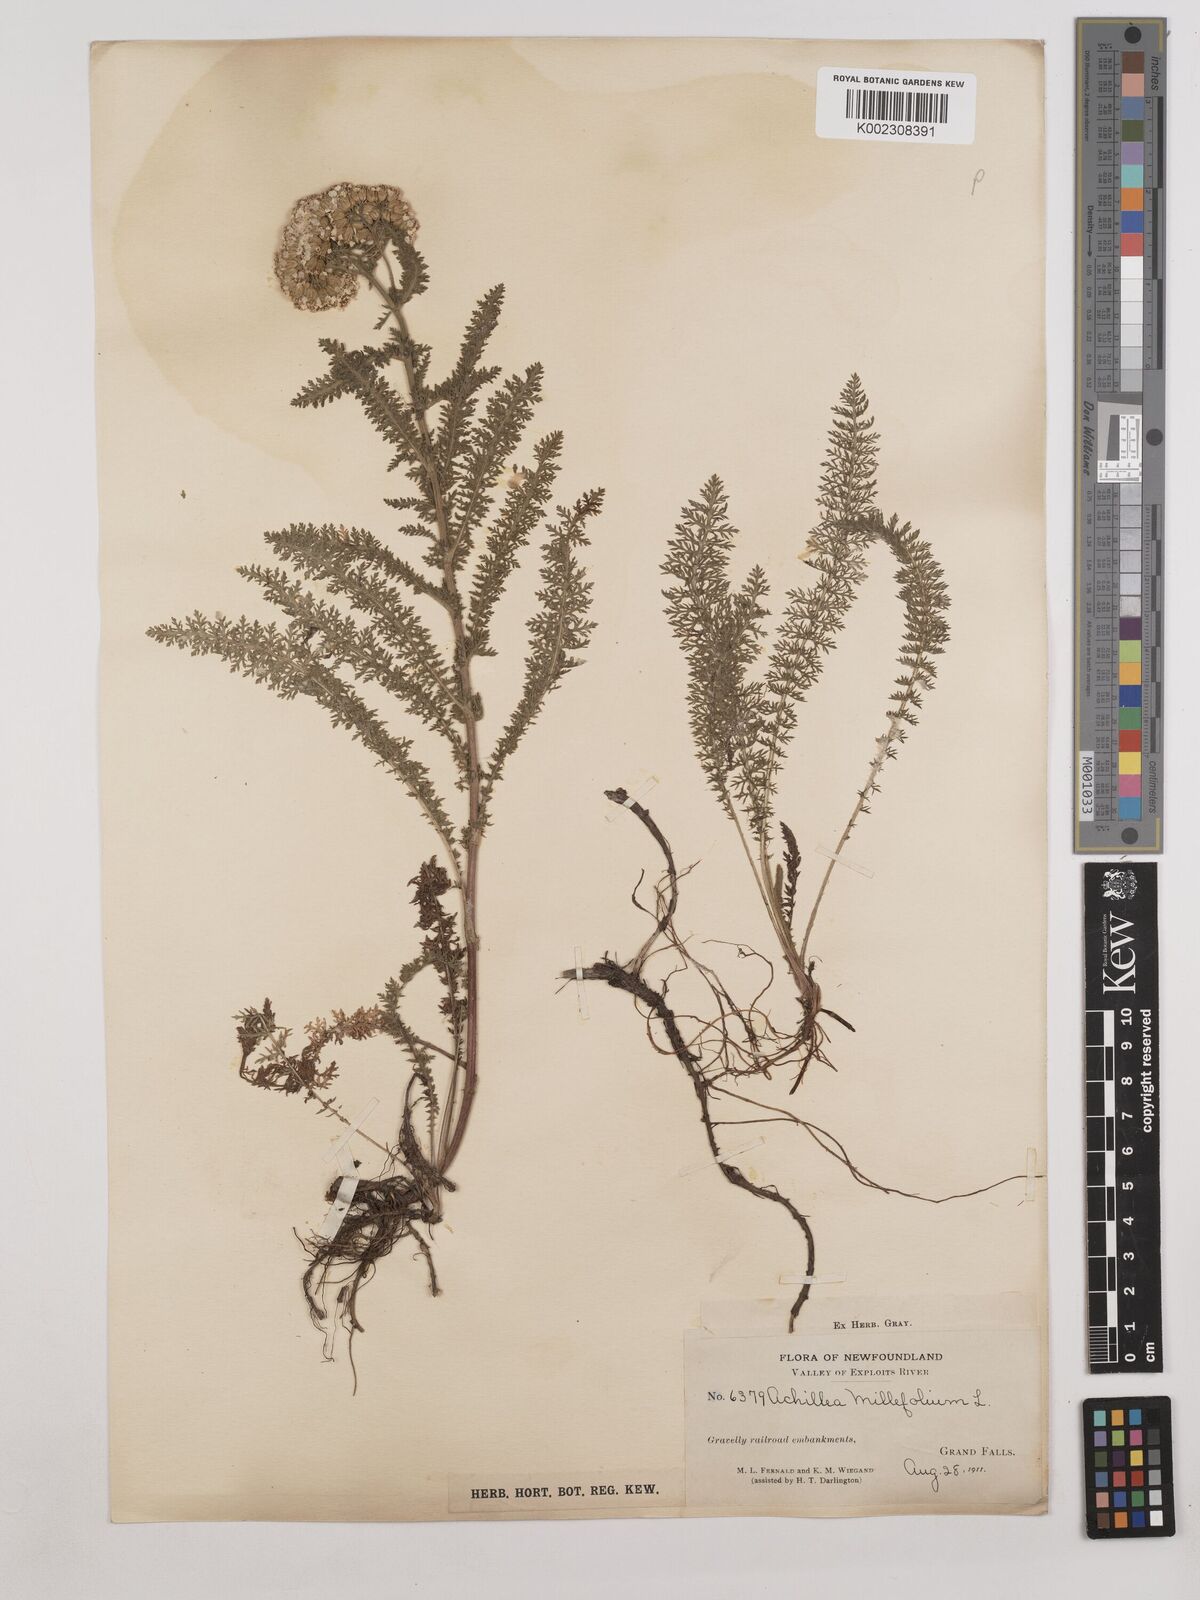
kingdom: Plantae
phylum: Tracheophyta
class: Magnoliopsida
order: Asterales
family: Asteraceae
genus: Achillea
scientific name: Achillea millefolium
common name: Yarrow
